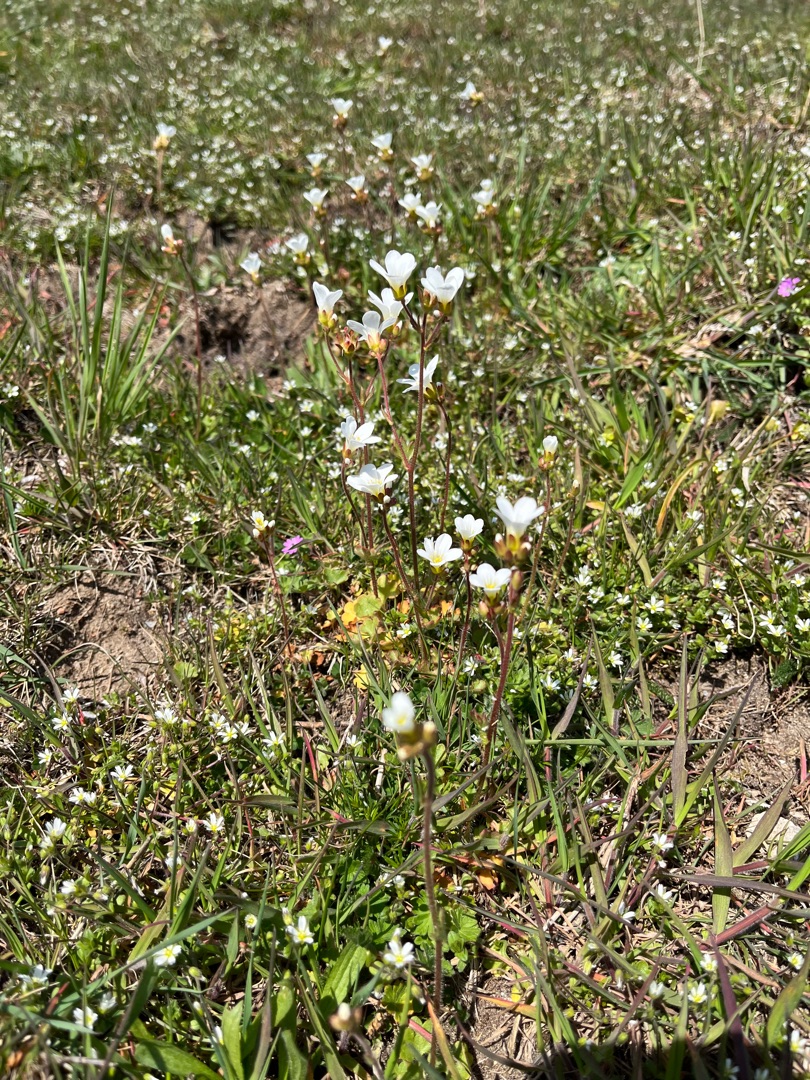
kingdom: Plantae
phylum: Tracheophyta
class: Magnoliopsida
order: Saxifragales
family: Saxifragaceae
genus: Saxifraga
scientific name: Saxifraga granulata
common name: Kornet stenbræk
